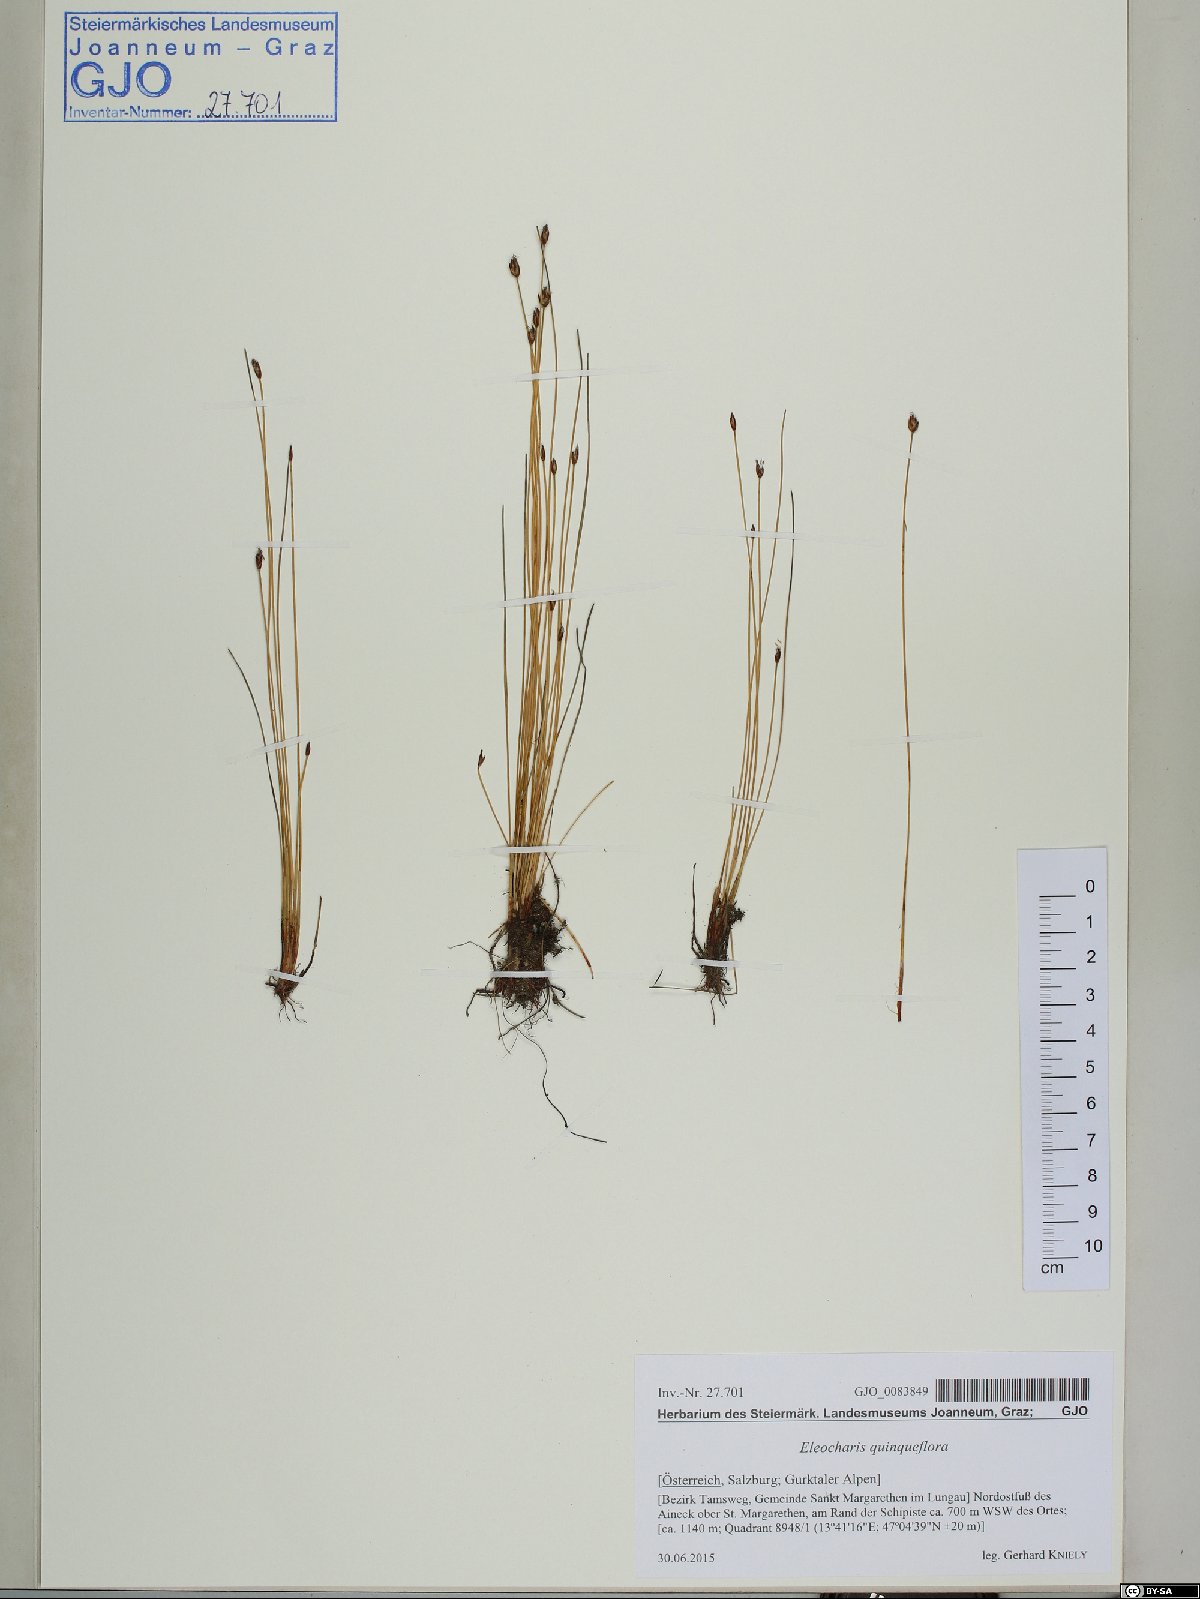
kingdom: Plantae
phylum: Tracheophyta
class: Liliopsida
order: Poales
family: Cyperaceae
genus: Eleocharis
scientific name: Eleocharis quinqueflora
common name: Few-flowered spike-rush
